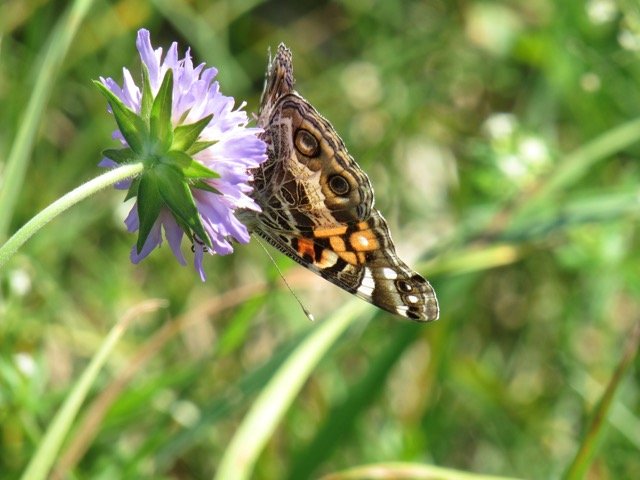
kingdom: Animalia
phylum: Arthropoda
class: Insecta
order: Lepidoptera
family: Nymphalidae
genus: Vanessa
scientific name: Vanessa virginiensis
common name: American Lady
